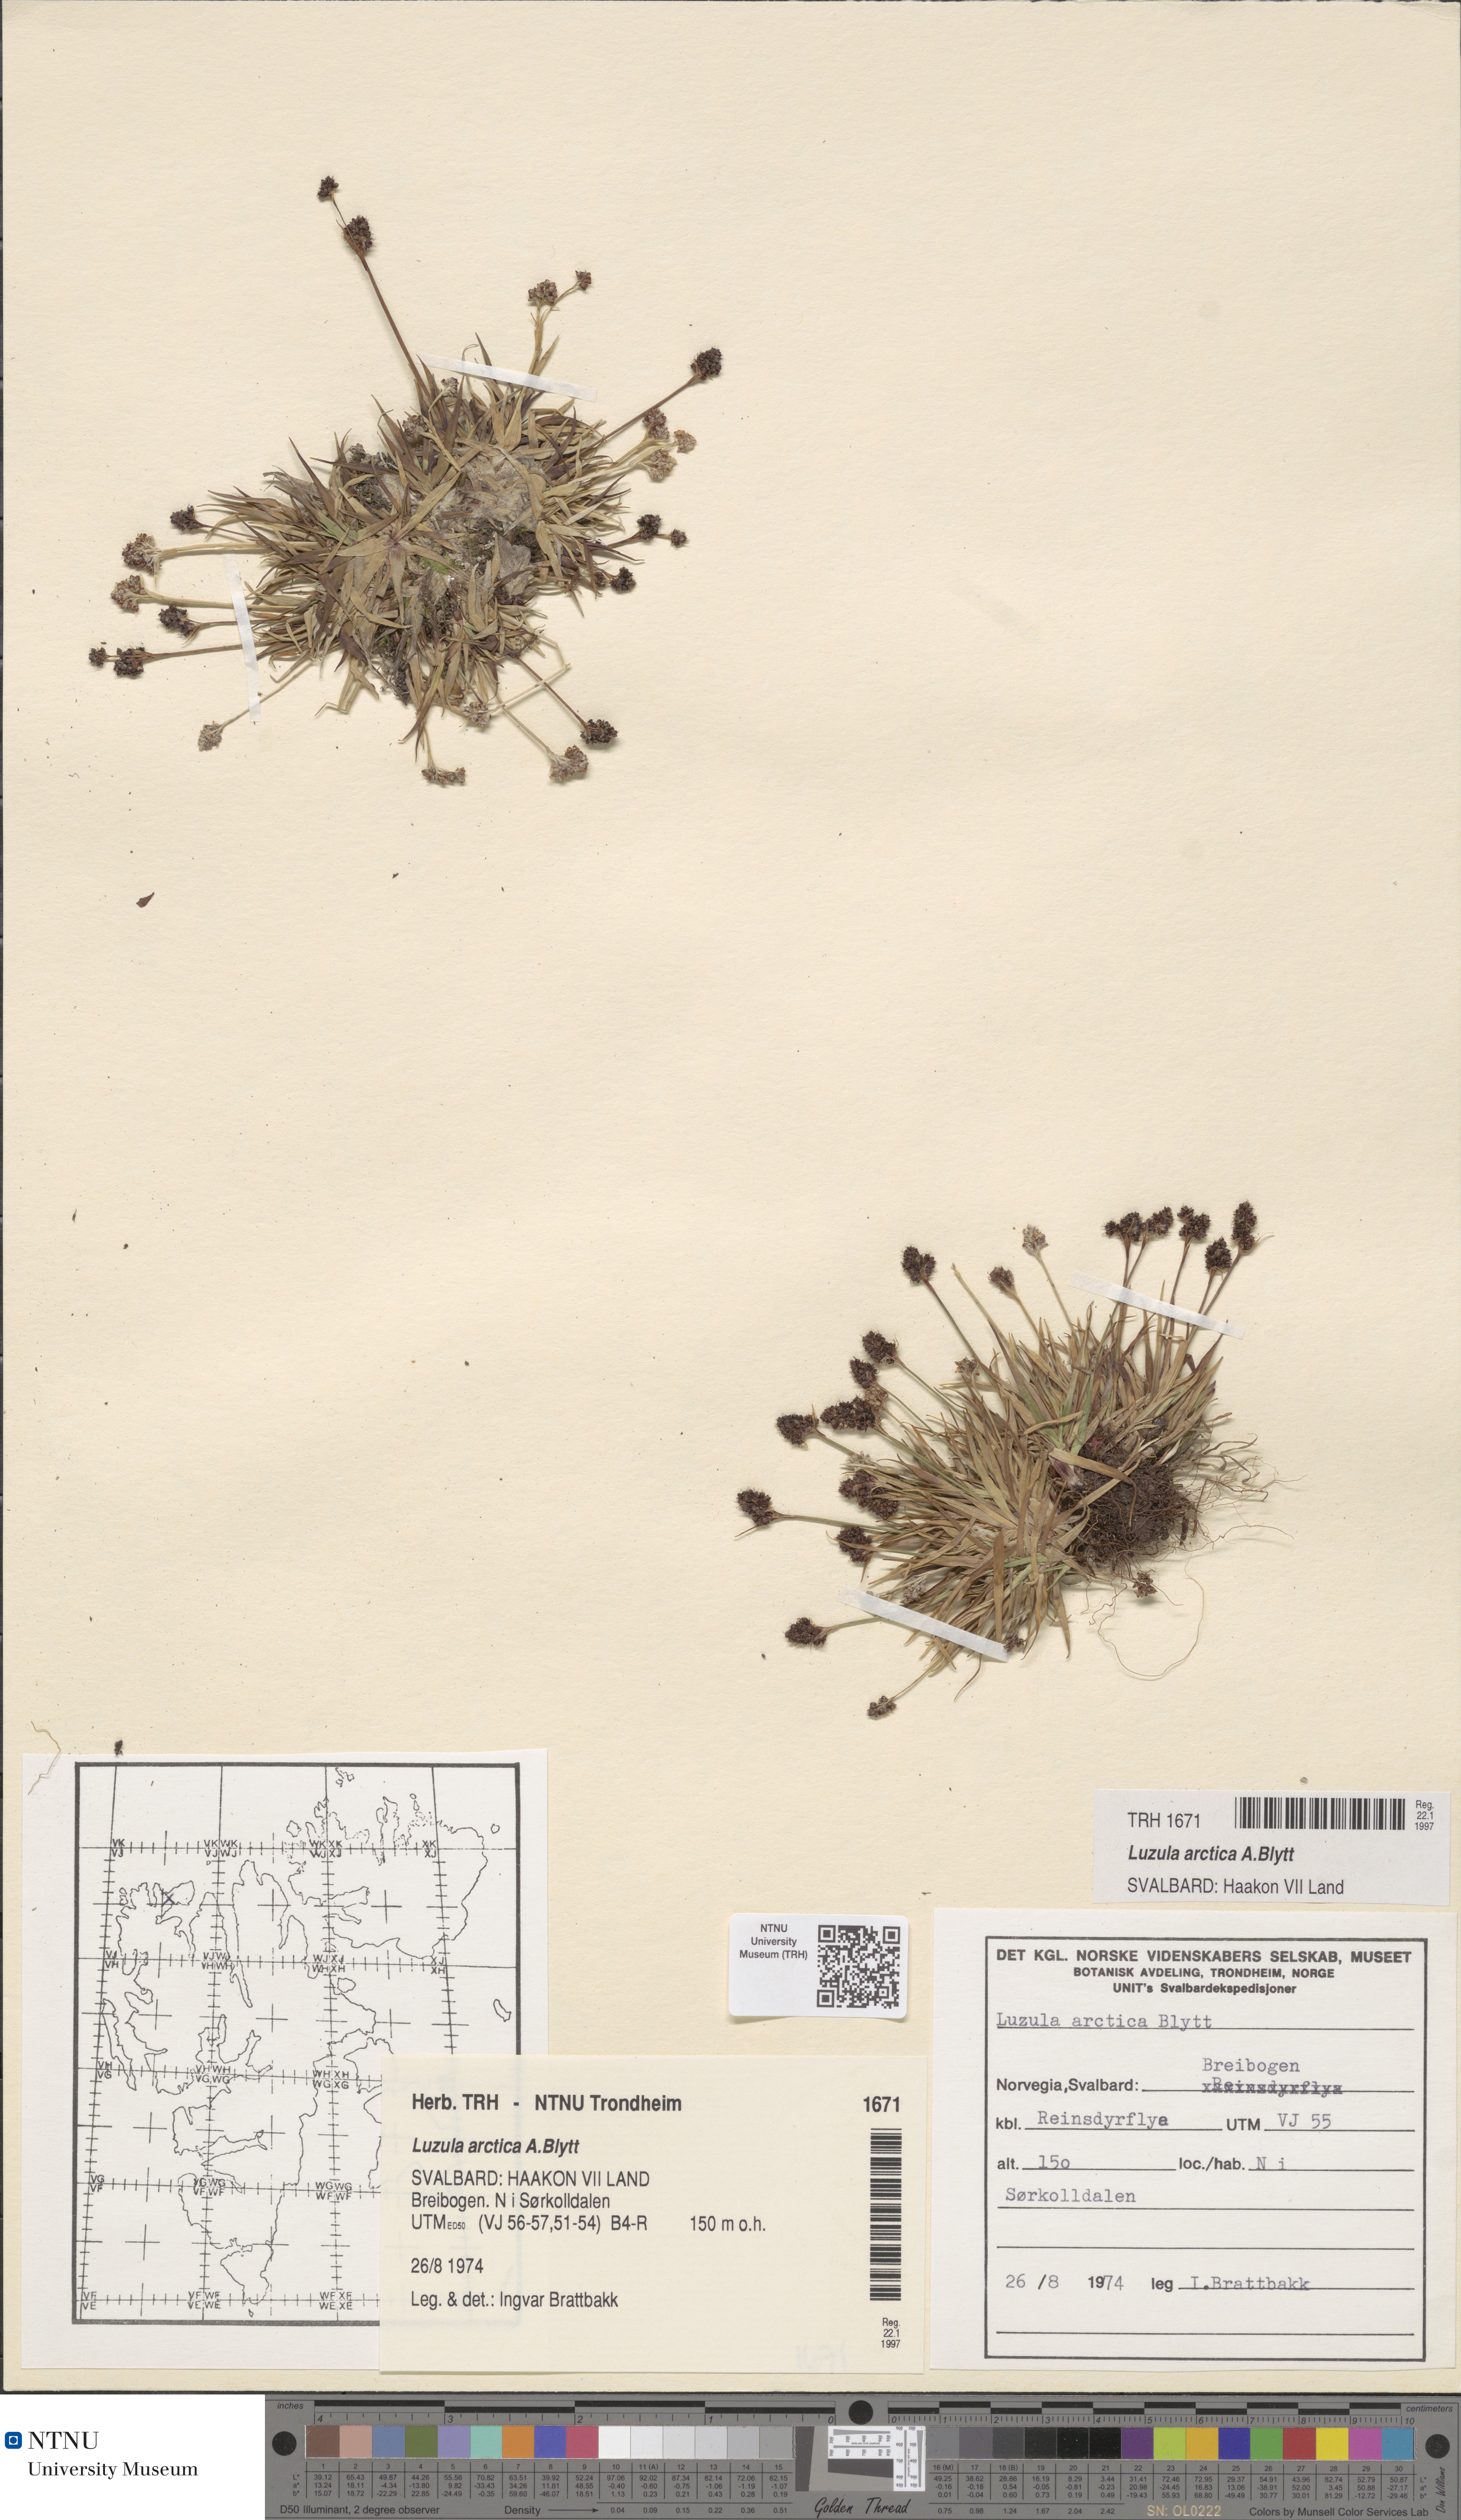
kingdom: Plantae
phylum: Tracheophyta
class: Liliopsida
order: Poales
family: Juncaceae
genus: Luzula
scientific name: Luzula nivalis
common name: Arctic woodrush
